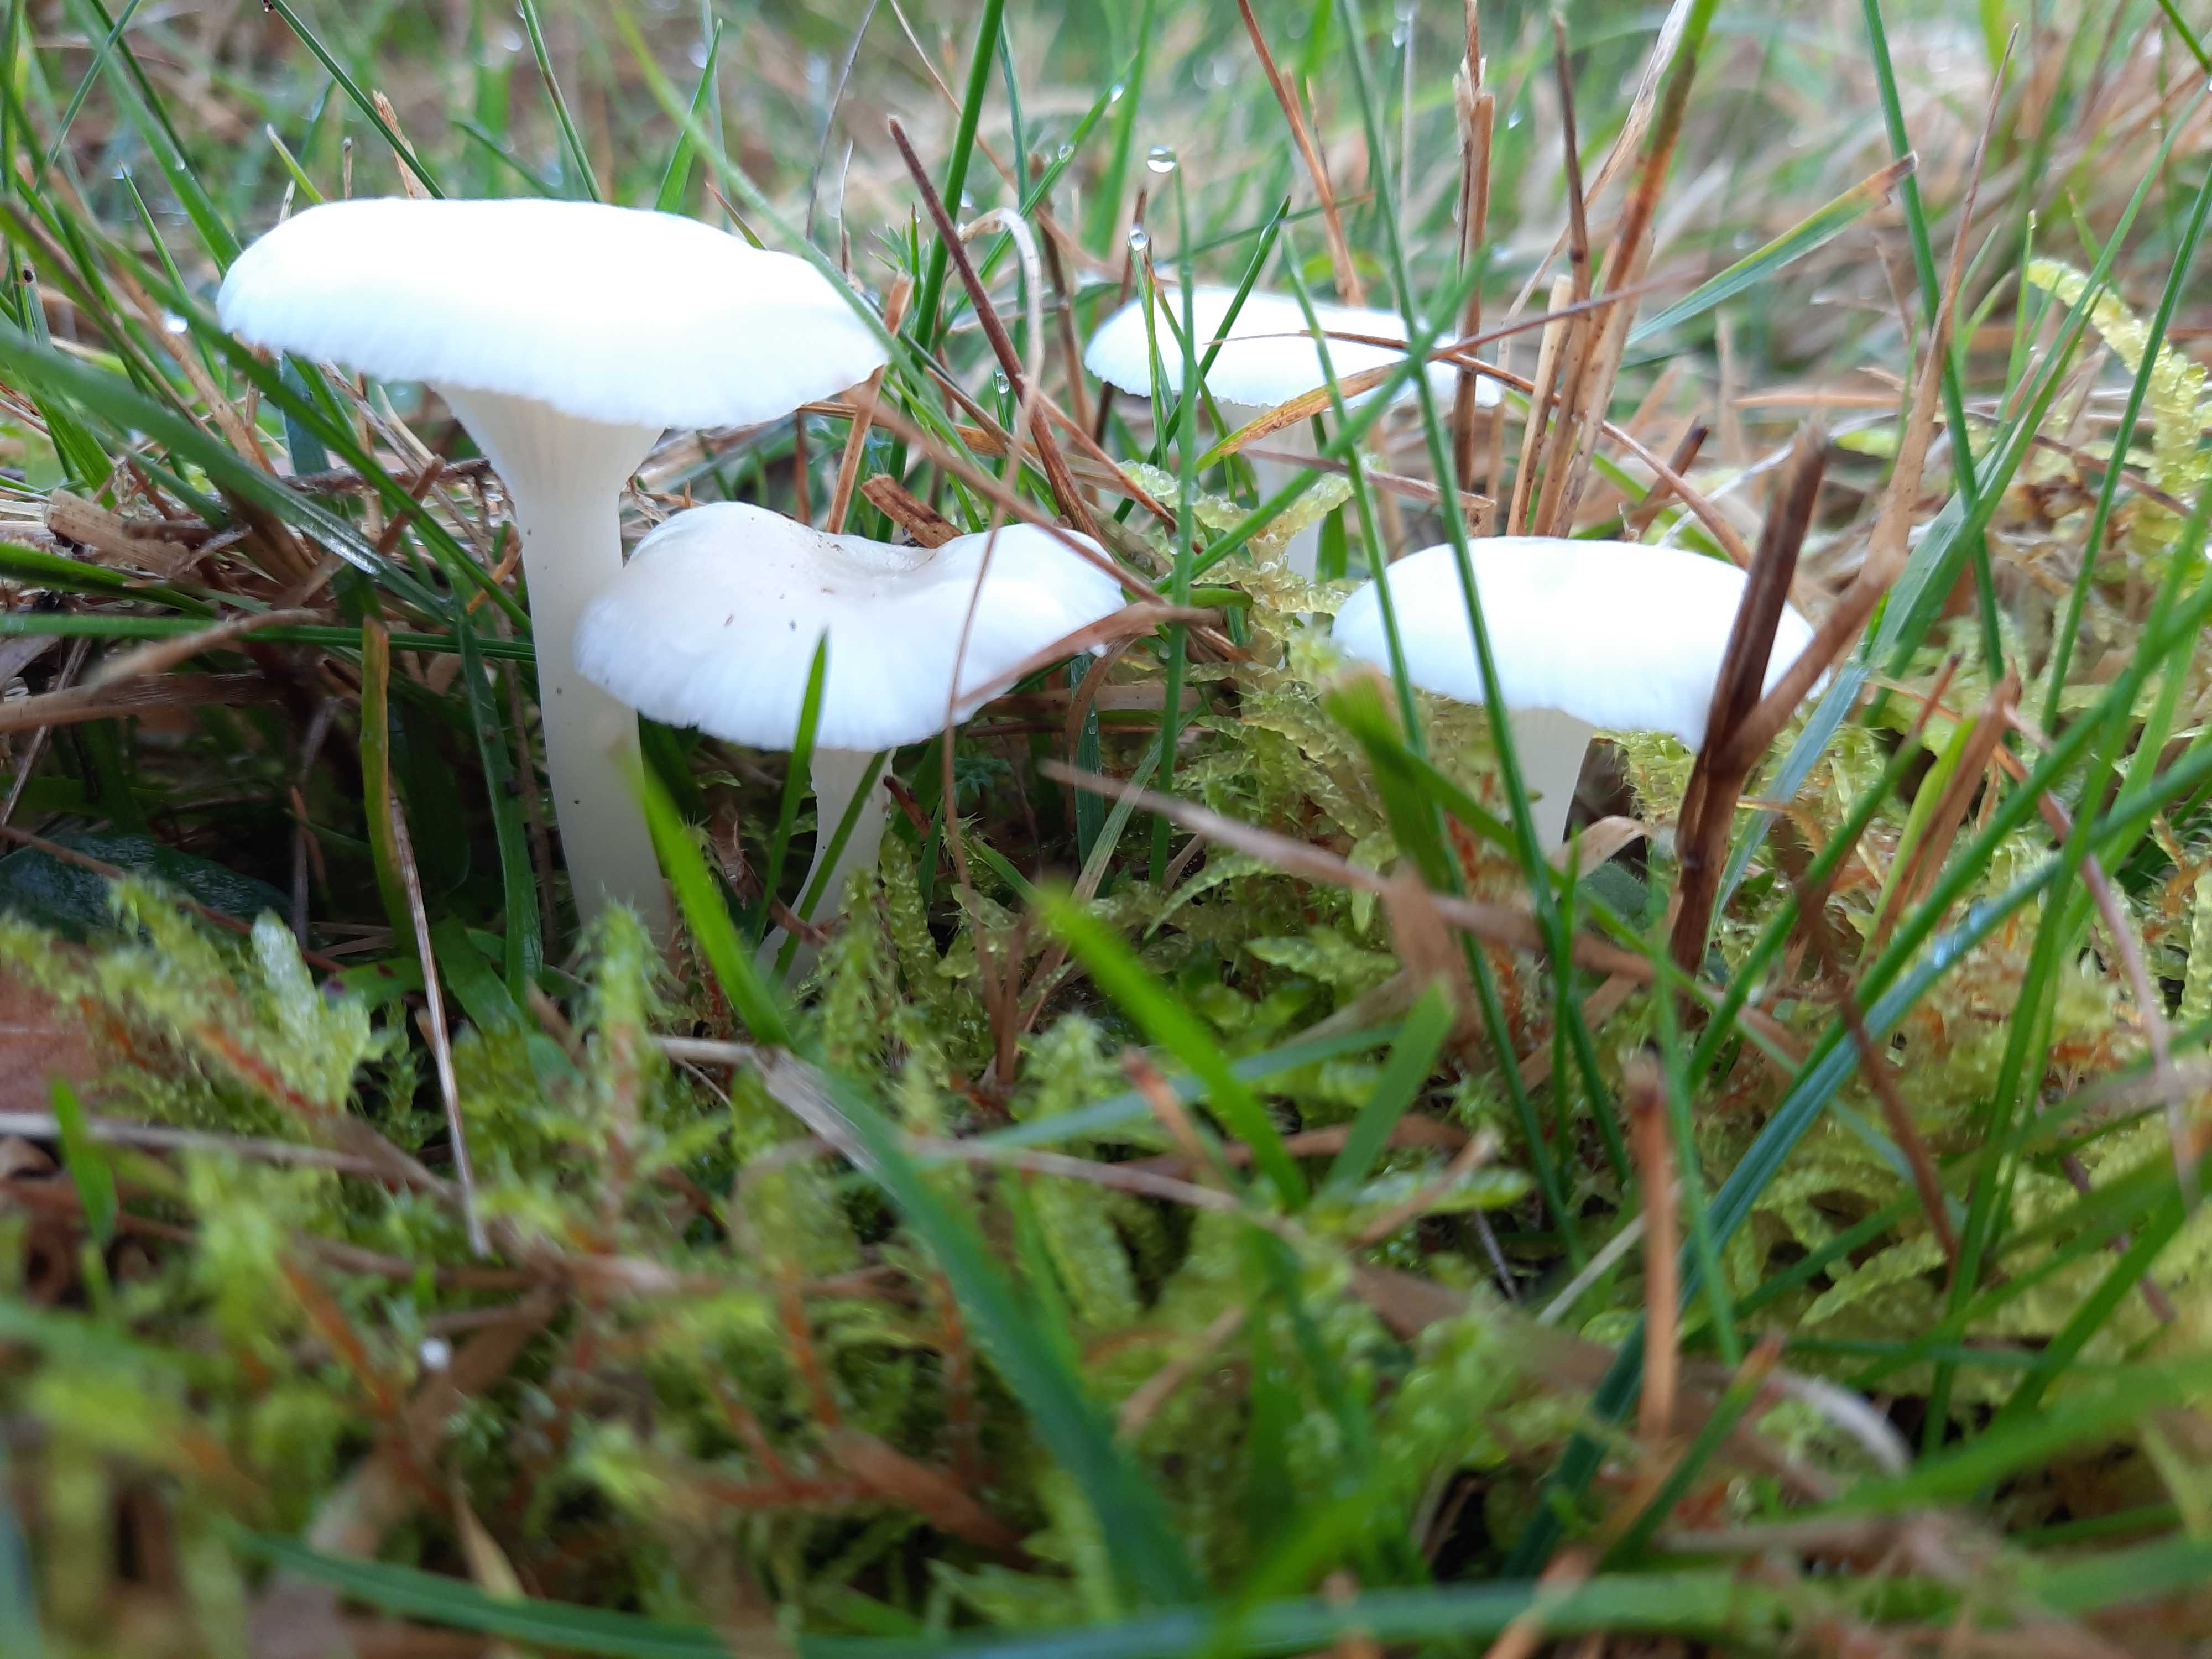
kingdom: Fungi
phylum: Basidiomycota
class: Agaricomycetes
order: Agaricales
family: Hygrophoraceae
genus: Cuphophyllus
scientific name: Cuphophyllus virgineus
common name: snehvid vokshat
